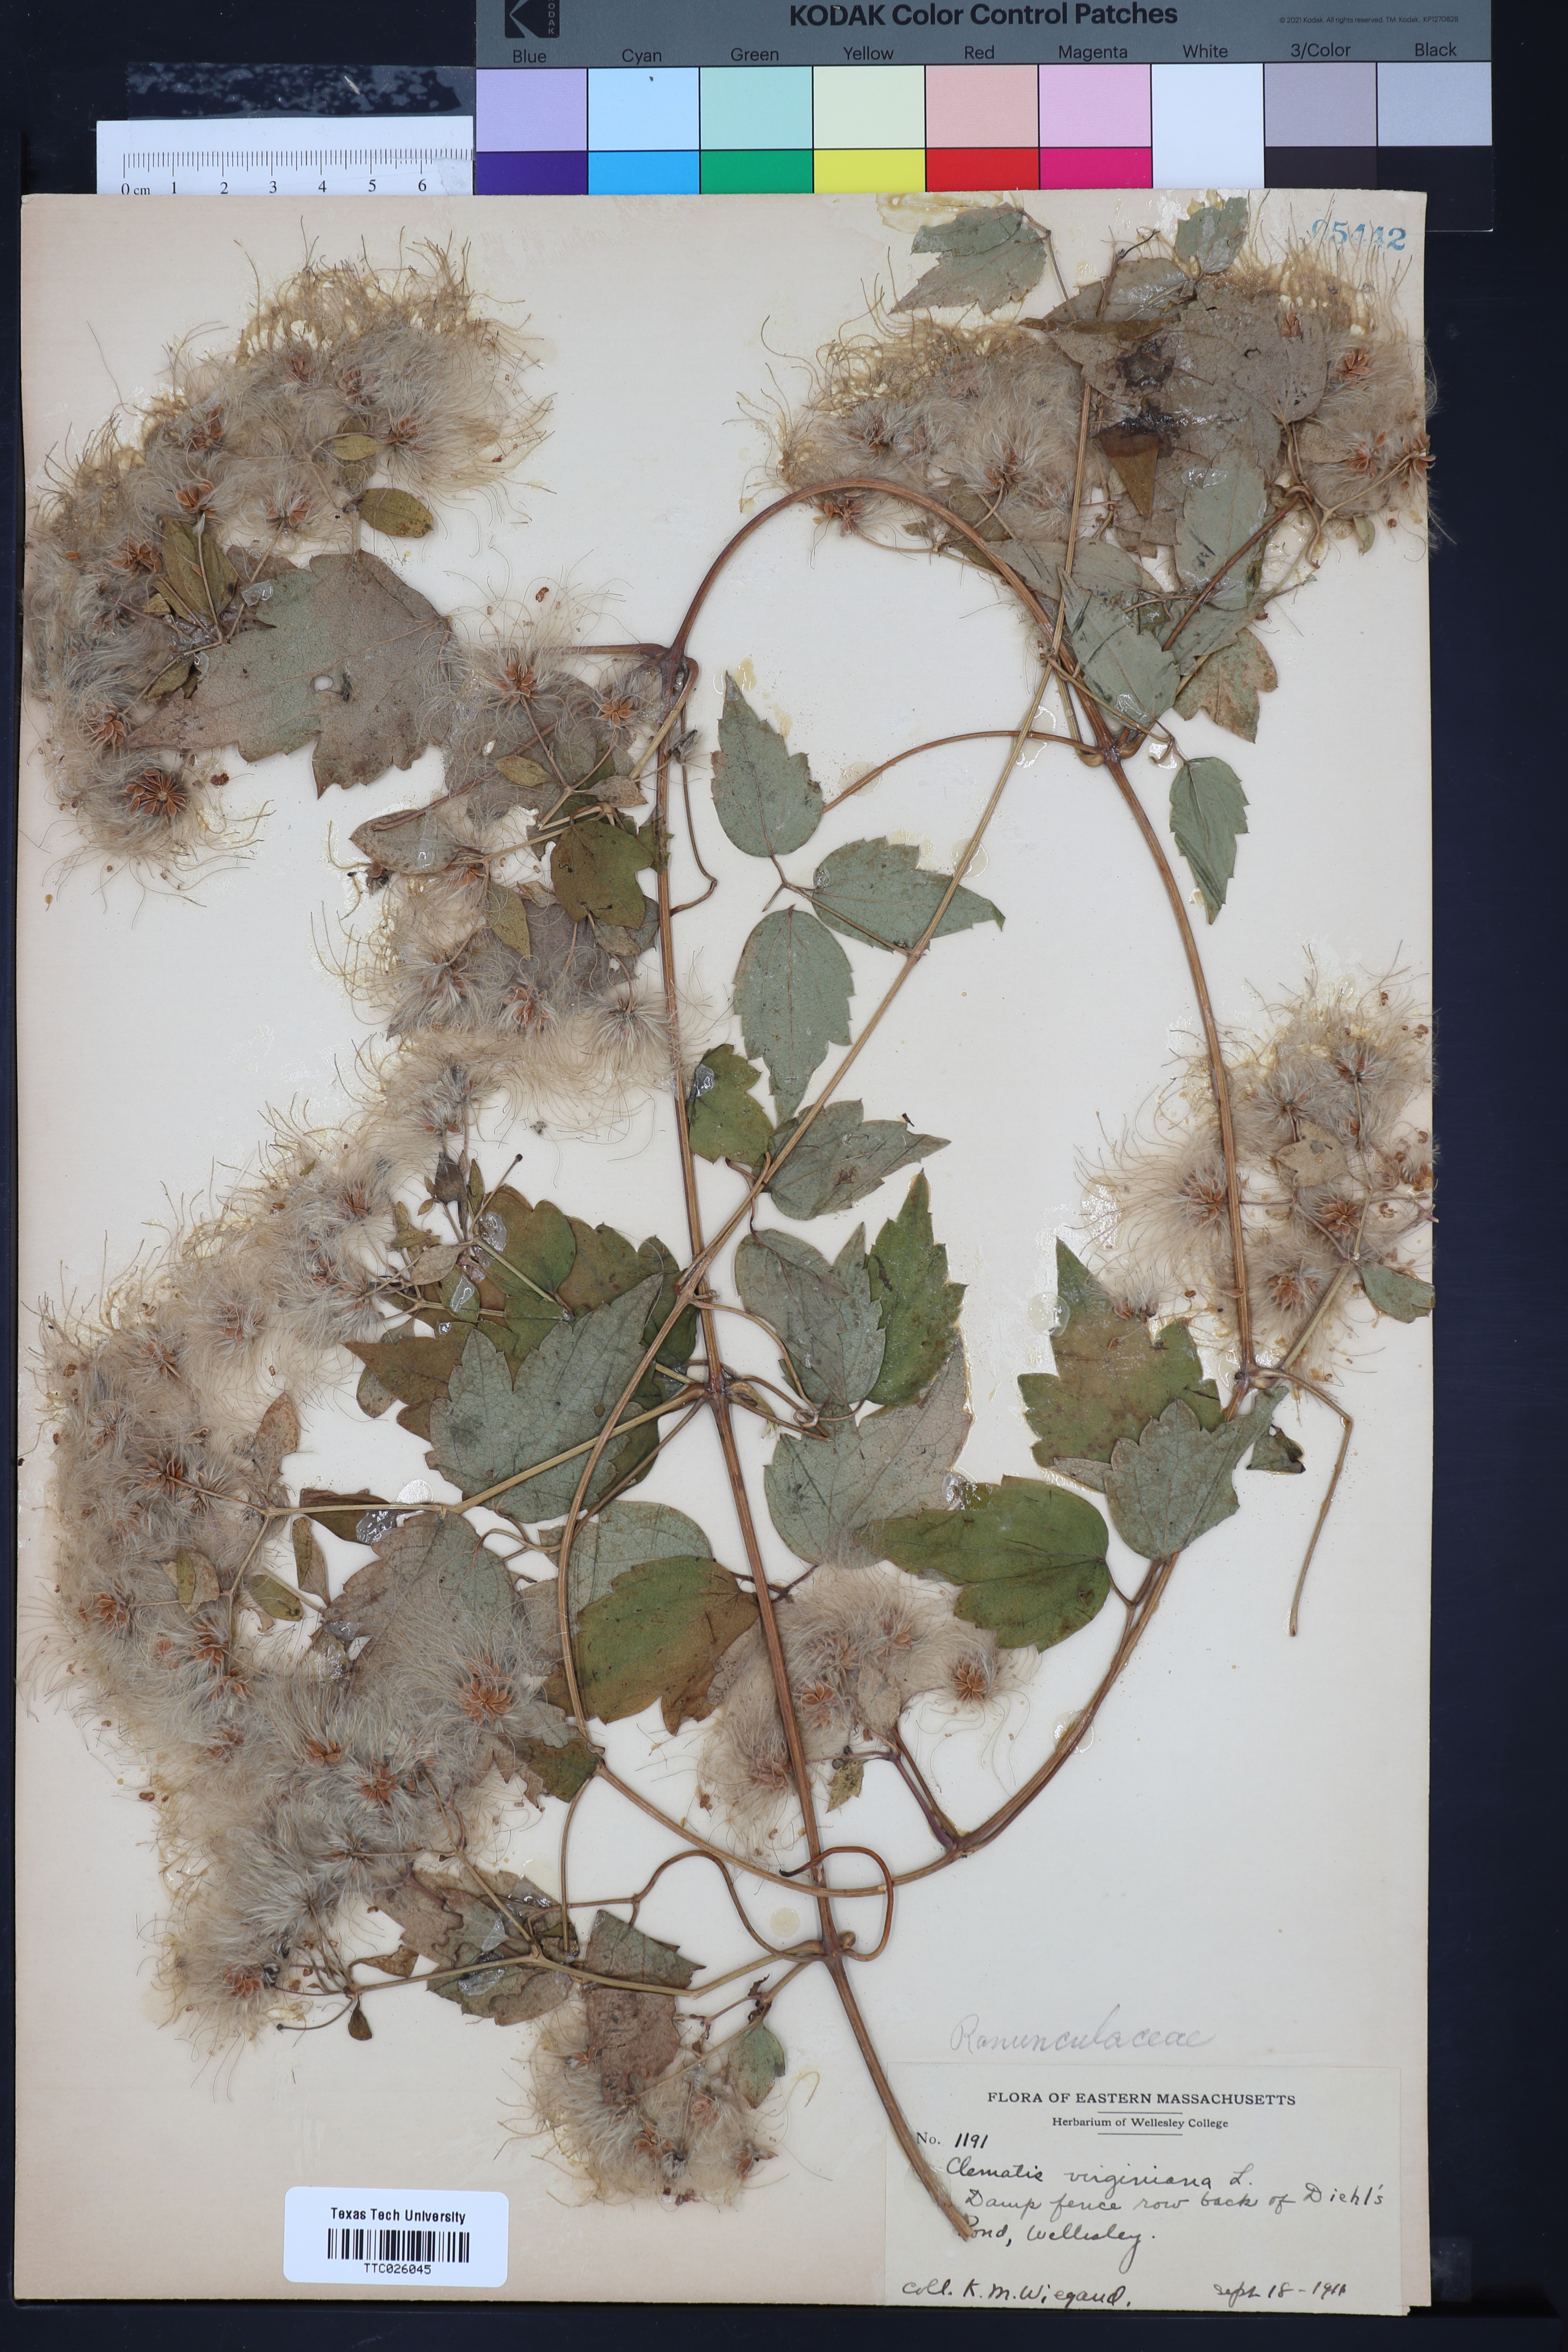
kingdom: Plantae
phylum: Tracheophyta
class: Magnoliopsida
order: Ranunculales
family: Ranunculaceae
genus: Clematis
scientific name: Clematis virginiana
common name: Virgin's-bower
